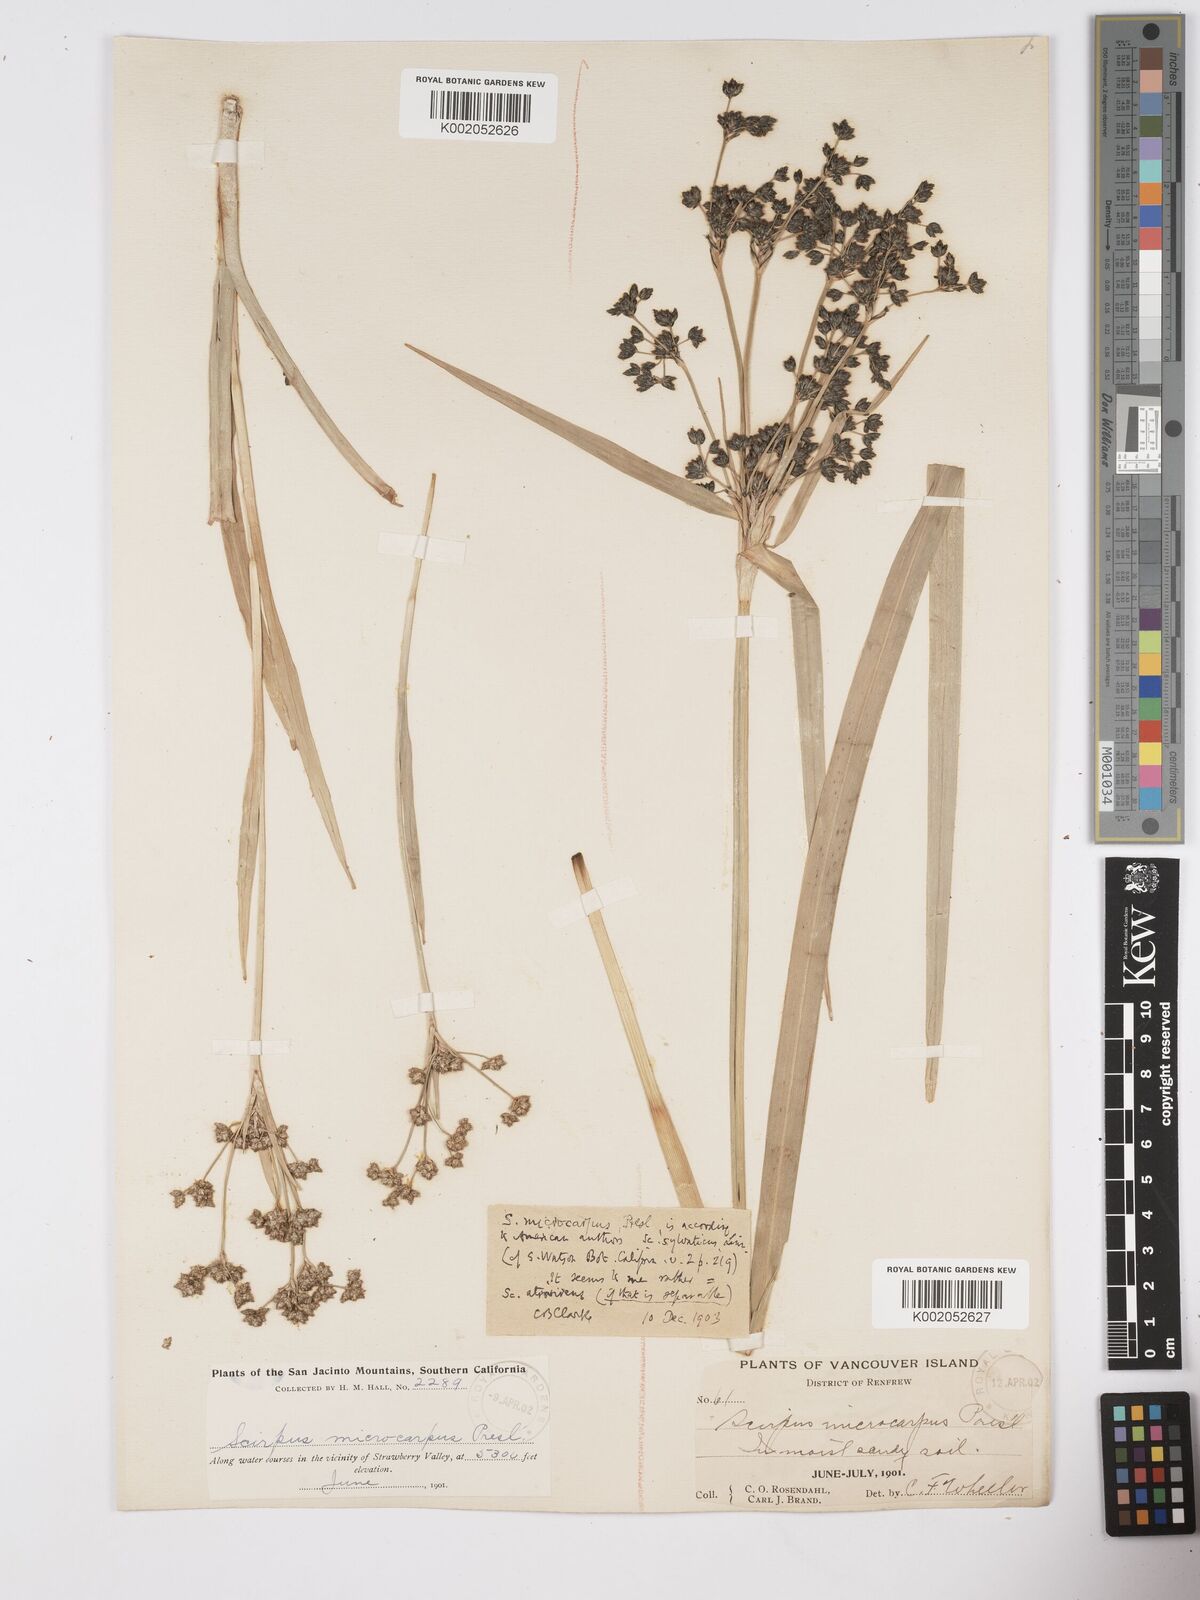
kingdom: Plantae
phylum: Tracheophyta
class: Liliopsida
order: Poales
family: Cyperaceae
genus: Scirpus
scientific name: Scirpus atrovirens
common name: Black bulrush
